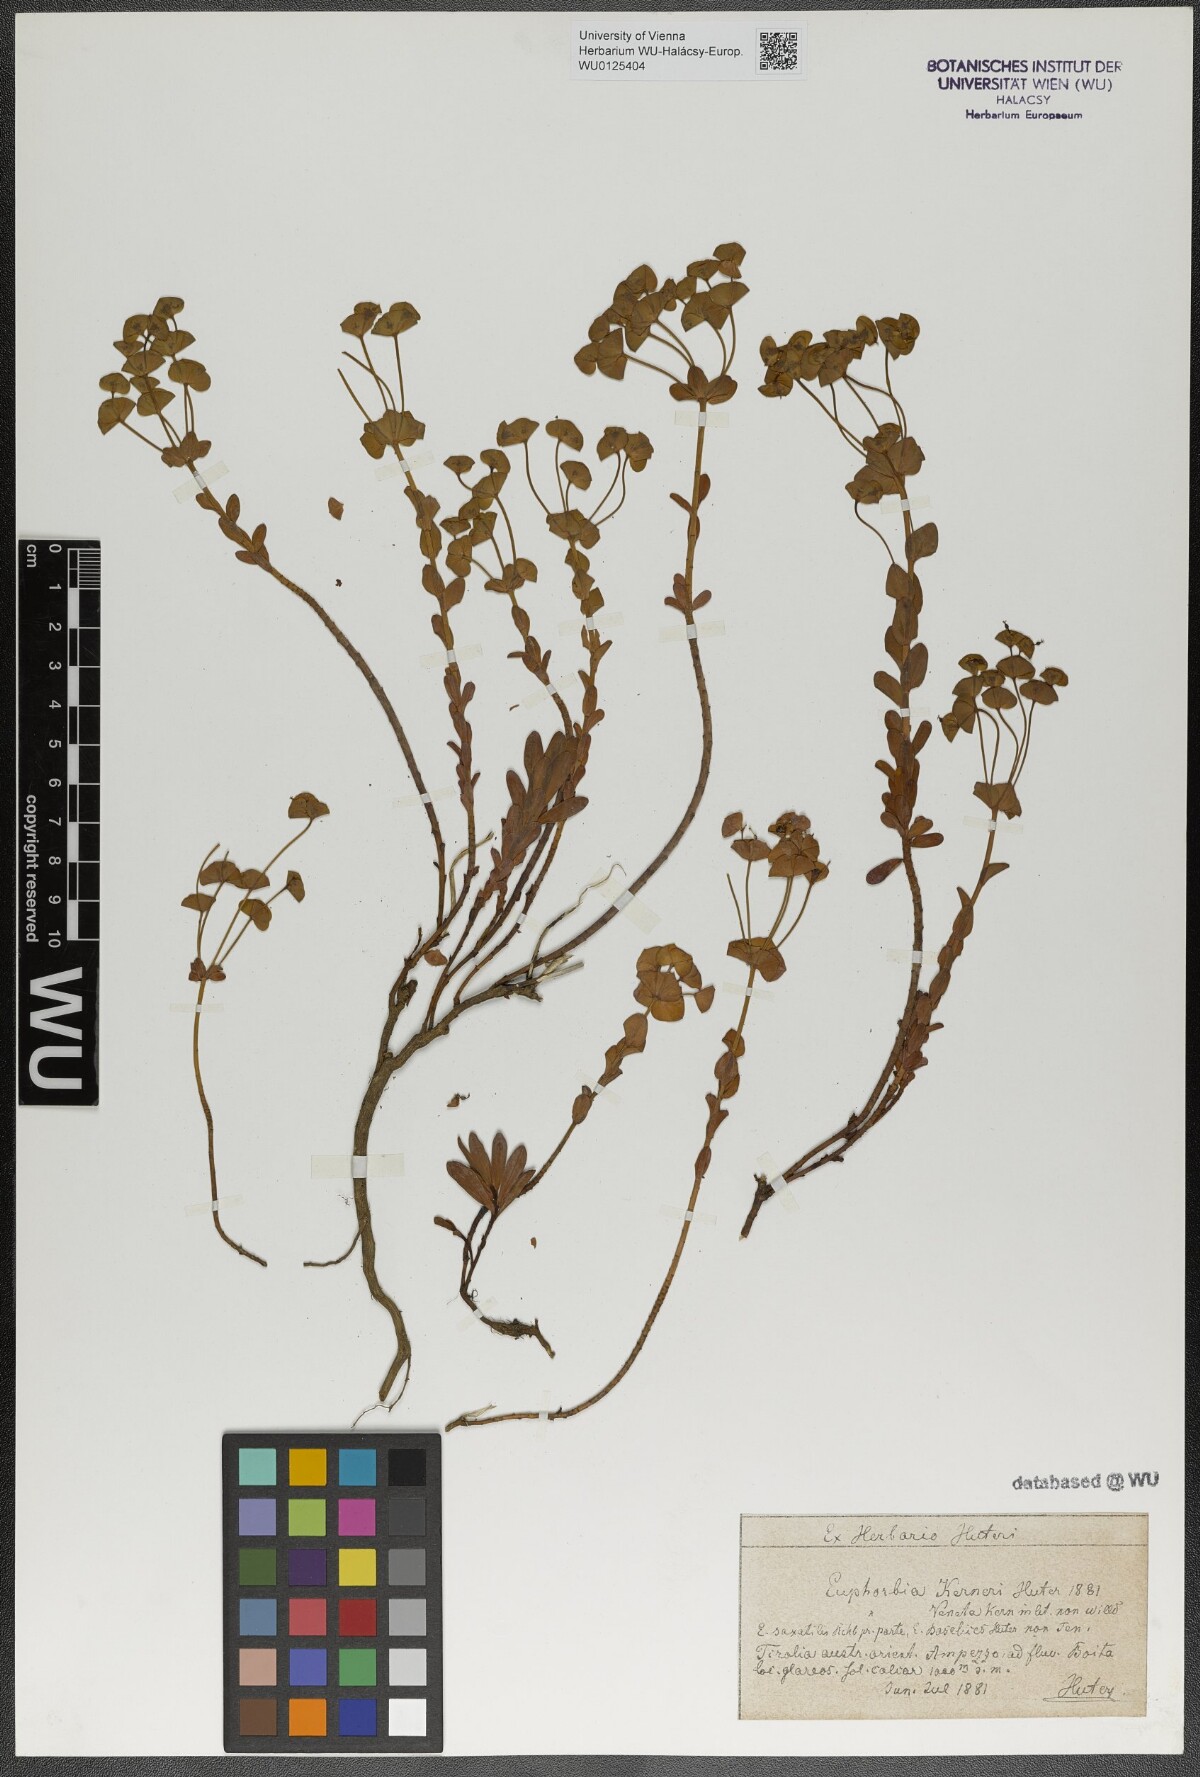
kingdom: Plantae
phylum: Tracheophyta
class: Magnoliopsida
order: Malpighiales
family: Euphorbiaceae
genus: Euphorbia
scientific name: Euphorbia kerneri
